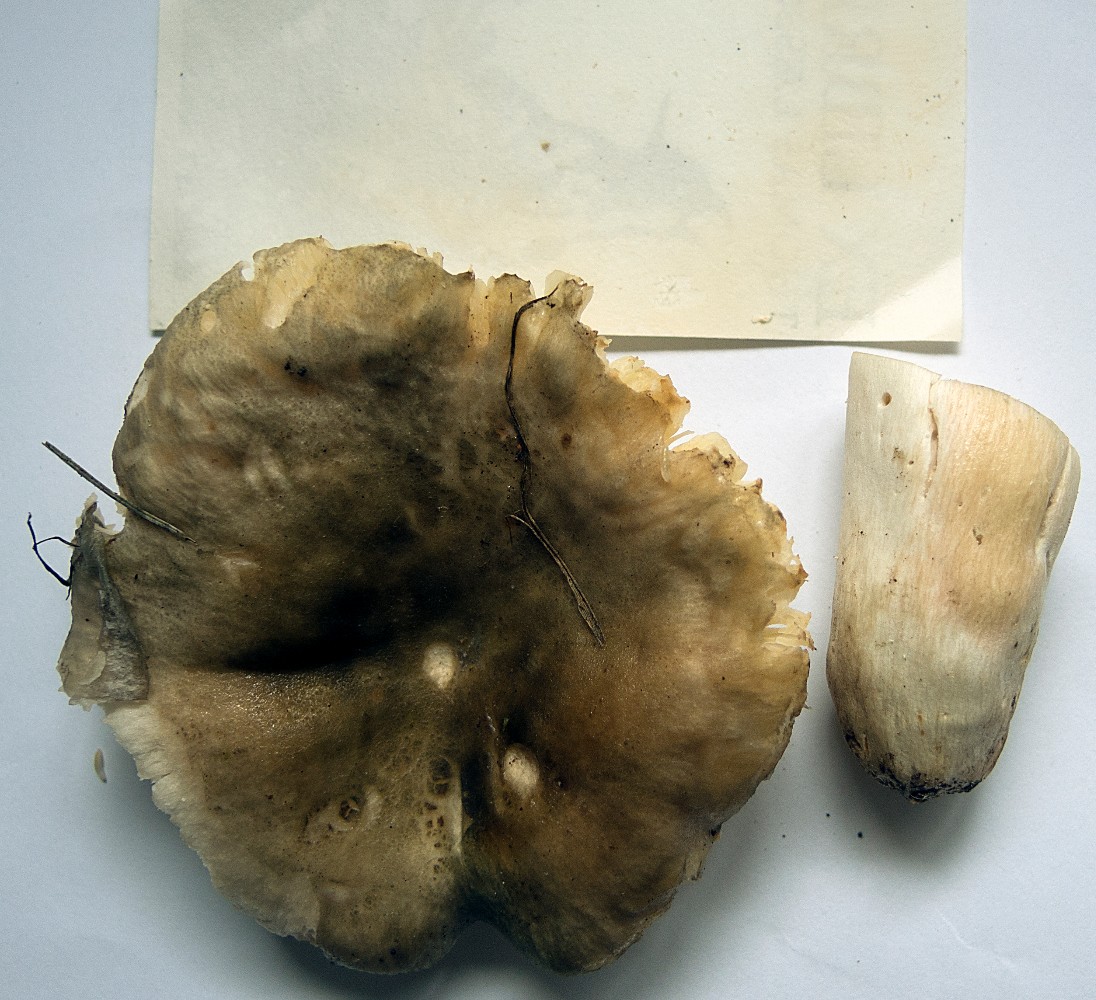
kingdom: Fungi
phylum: Basidiomycota
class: Agaricomycetes
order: Russulales
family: Russulaceae
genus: Russula
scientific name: Russula anatina
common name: ande-skørhat
